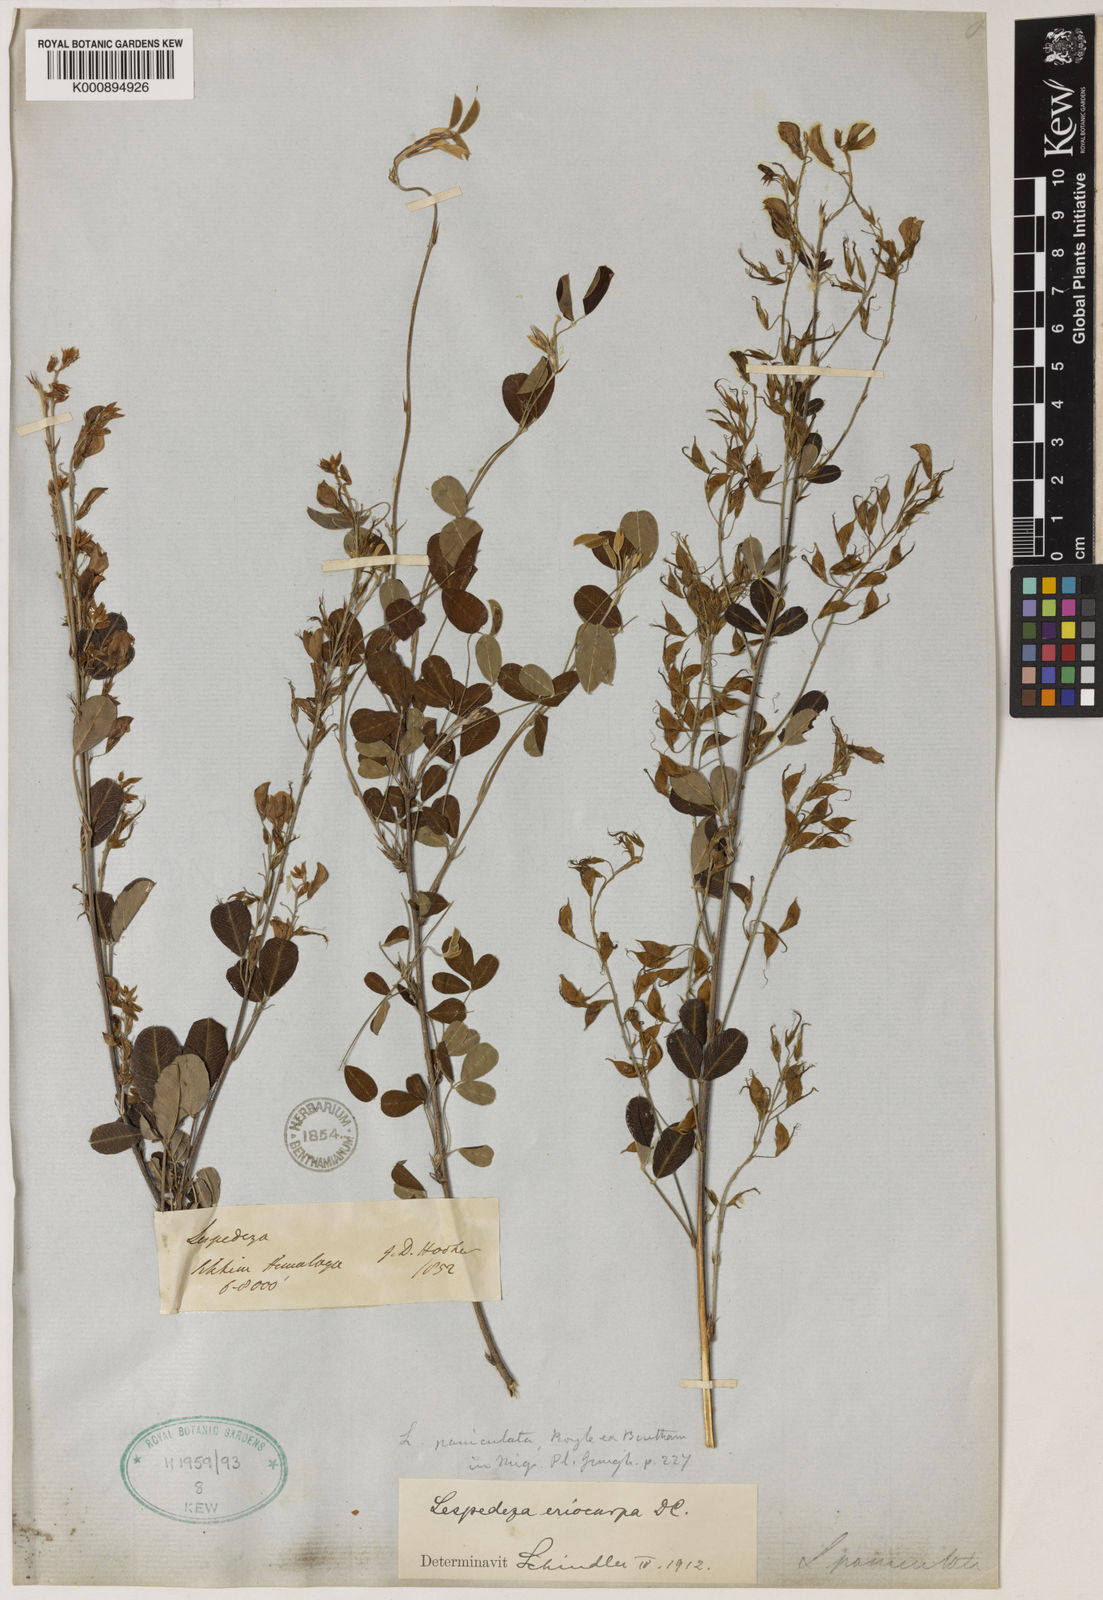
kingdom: Plantae
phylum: Tracheophyta
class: Magnoliopsida
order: Fabales
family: Fabaceae
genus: Campylotropis
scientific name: Campylotropis speciosa
